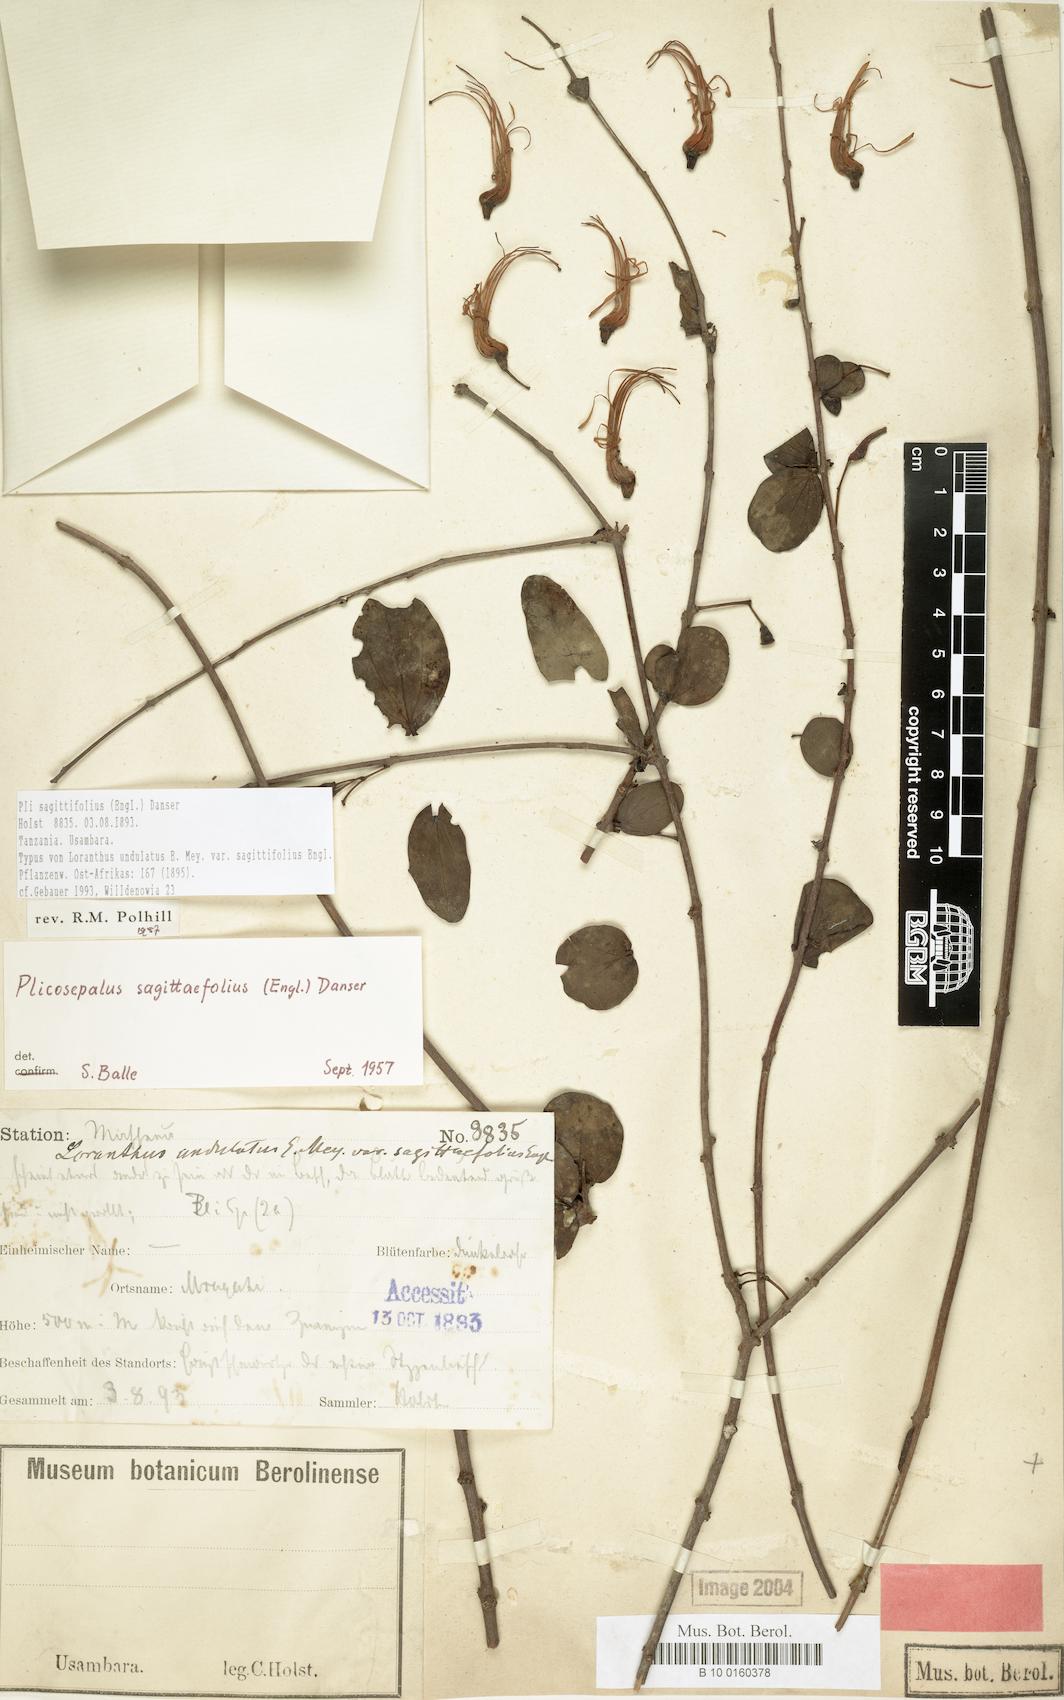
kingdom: Plantae
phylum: Tracheophyta
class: Magnoliopsida
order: Santalales
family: Loranthaceae
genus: Plicosepalus
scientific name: Plicosepalus sagittifolius
